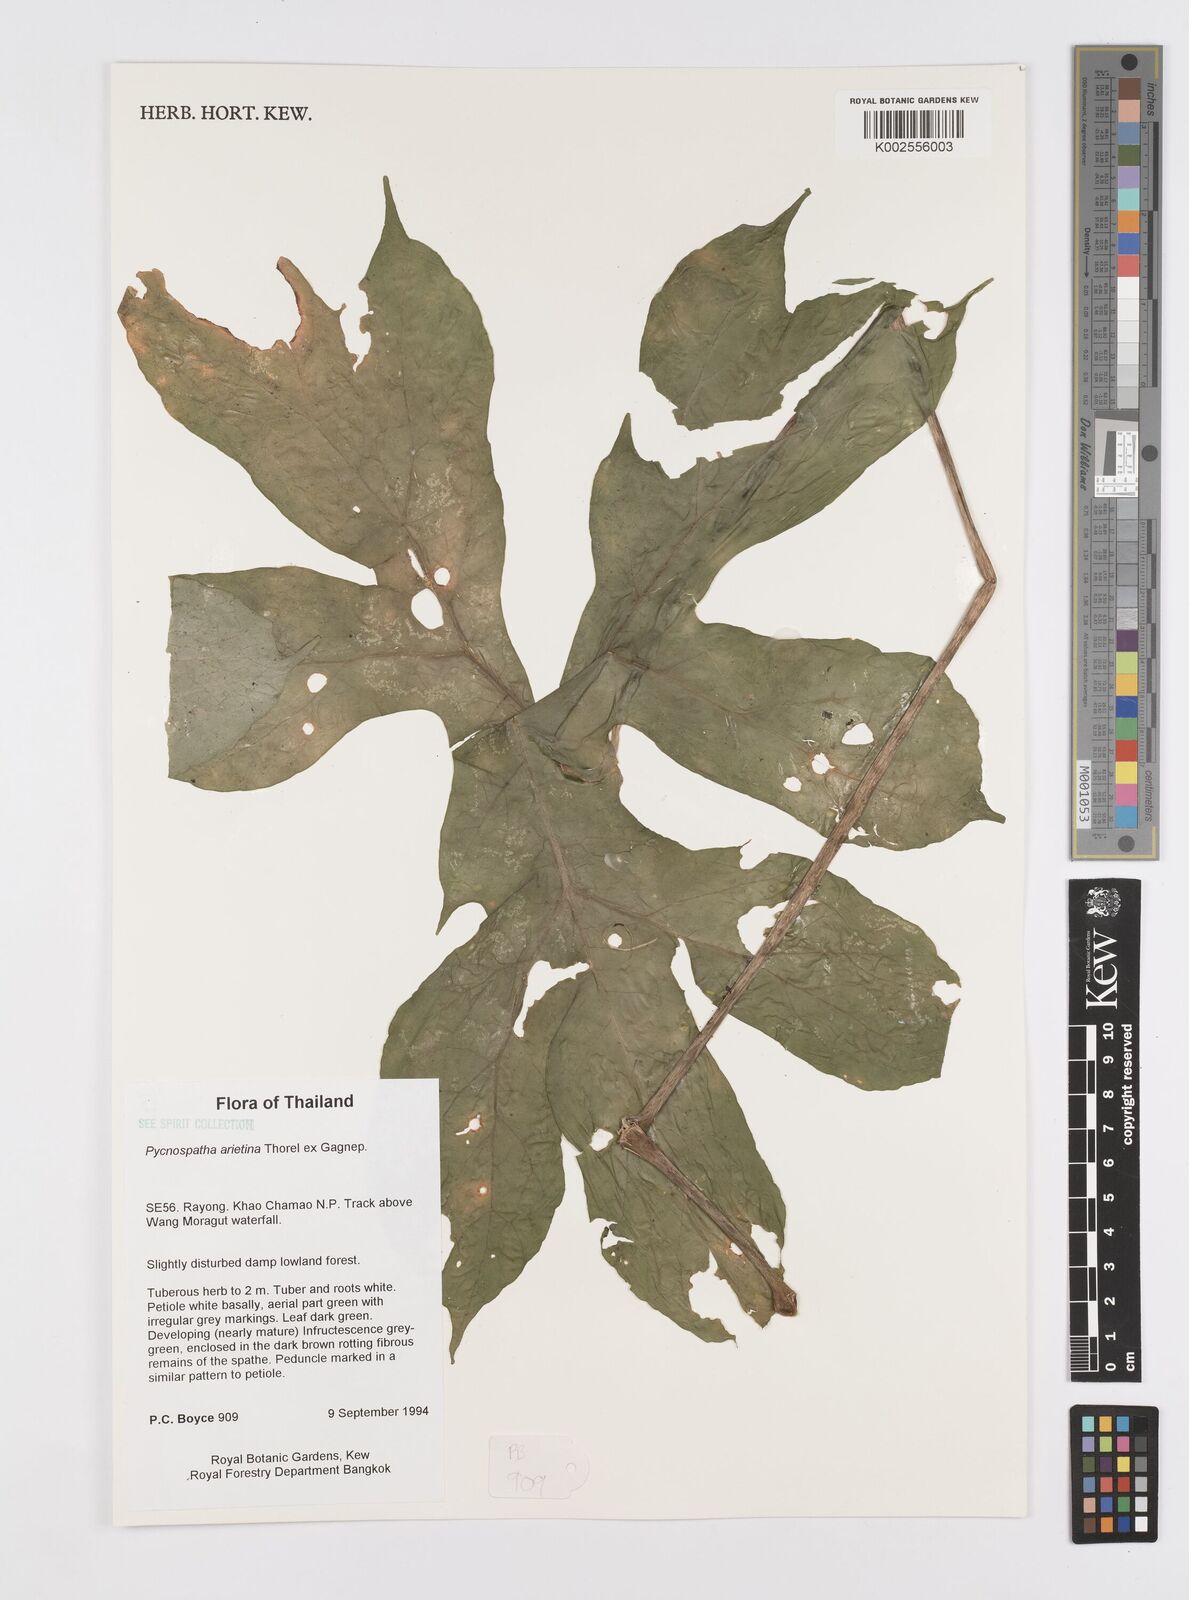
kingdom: Plantae
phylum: Tracheophyta
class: Liliopsida
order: Alismatales
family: Araceae
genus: Pycnospatha
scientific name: Pycnospatha arietina
